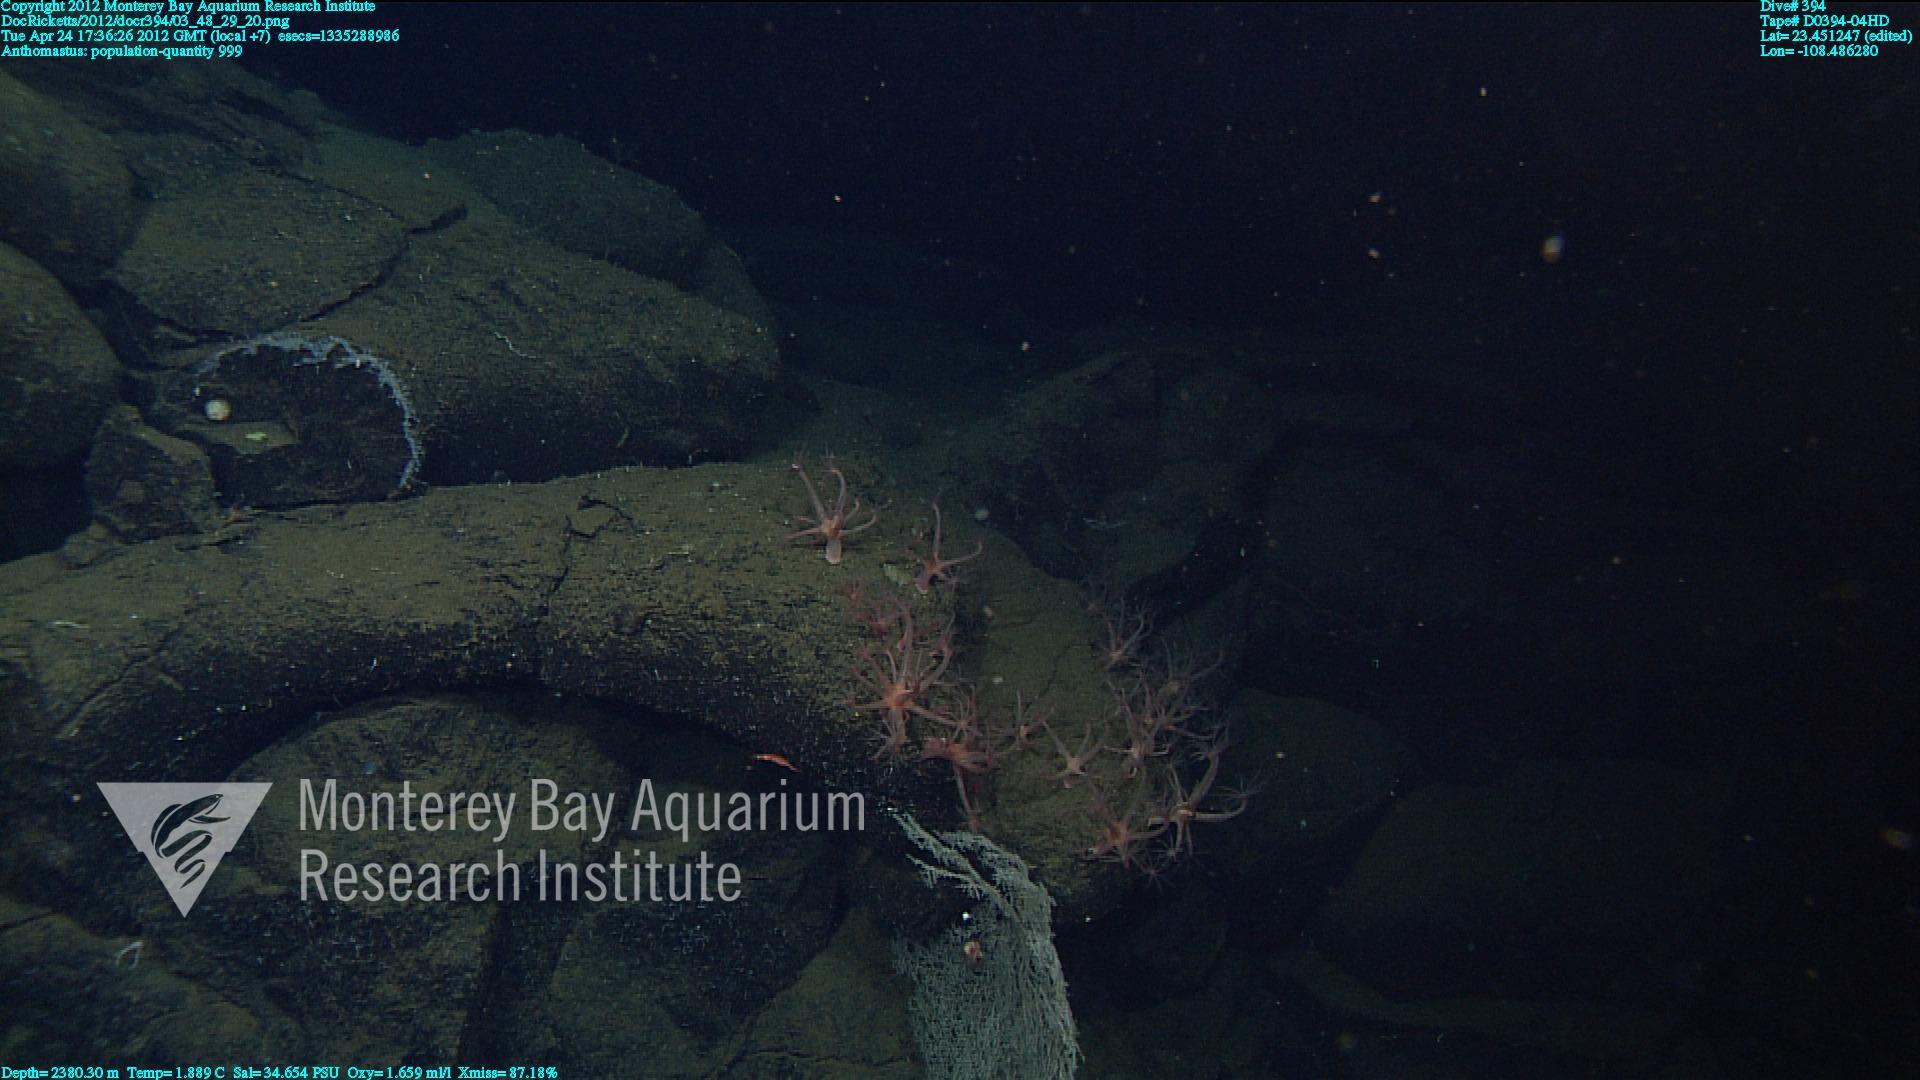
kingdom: Animalia
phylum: Cnidaria
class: Anthozoa
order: Scleralcyonacea
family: Coralliidae
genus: Heteropolypus
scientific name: Heteropolypus
